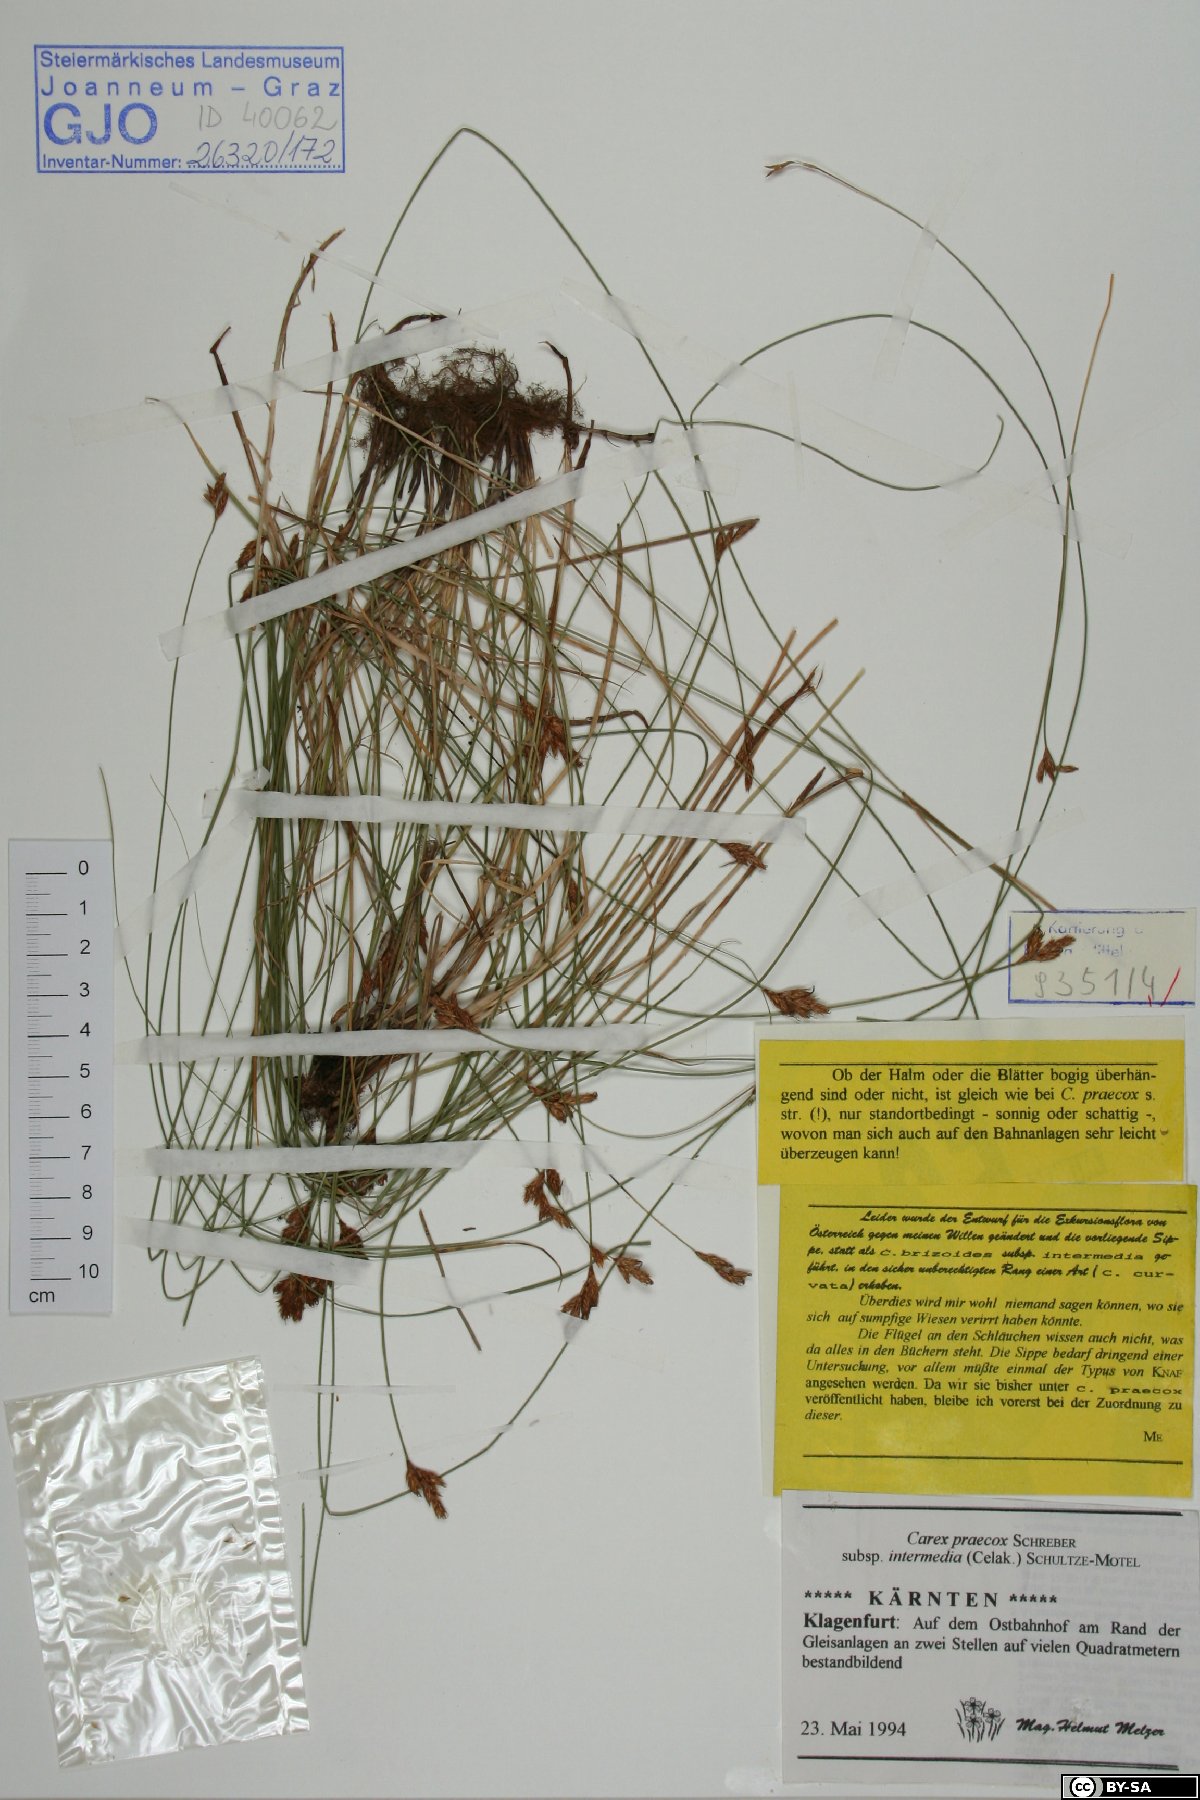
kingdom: Plantae
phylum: Tracheophyta
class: Liliopsida
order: Poales
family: Cyperaceae
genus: Carex
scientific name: Carex curvata
